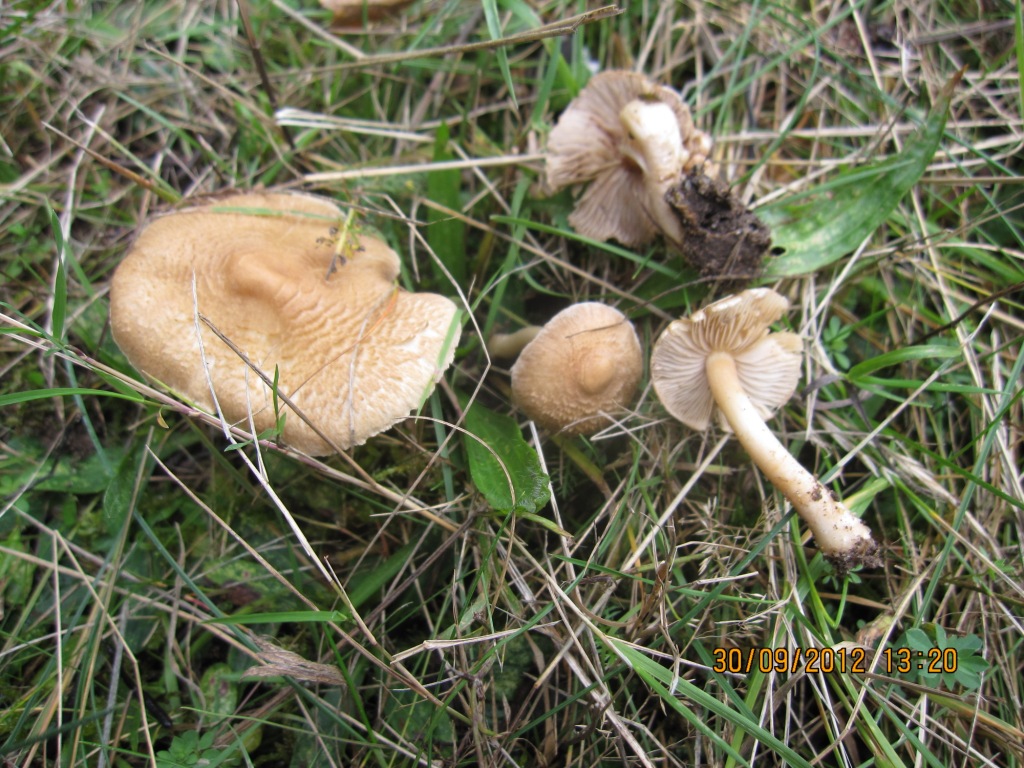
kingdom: Fungi
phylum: Basidiomycota
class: Agaricomycetes
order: Agaricales
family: Inocybaceae
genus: Inocybe
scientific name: Inocybe sindonia
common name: bleg trævlhat
